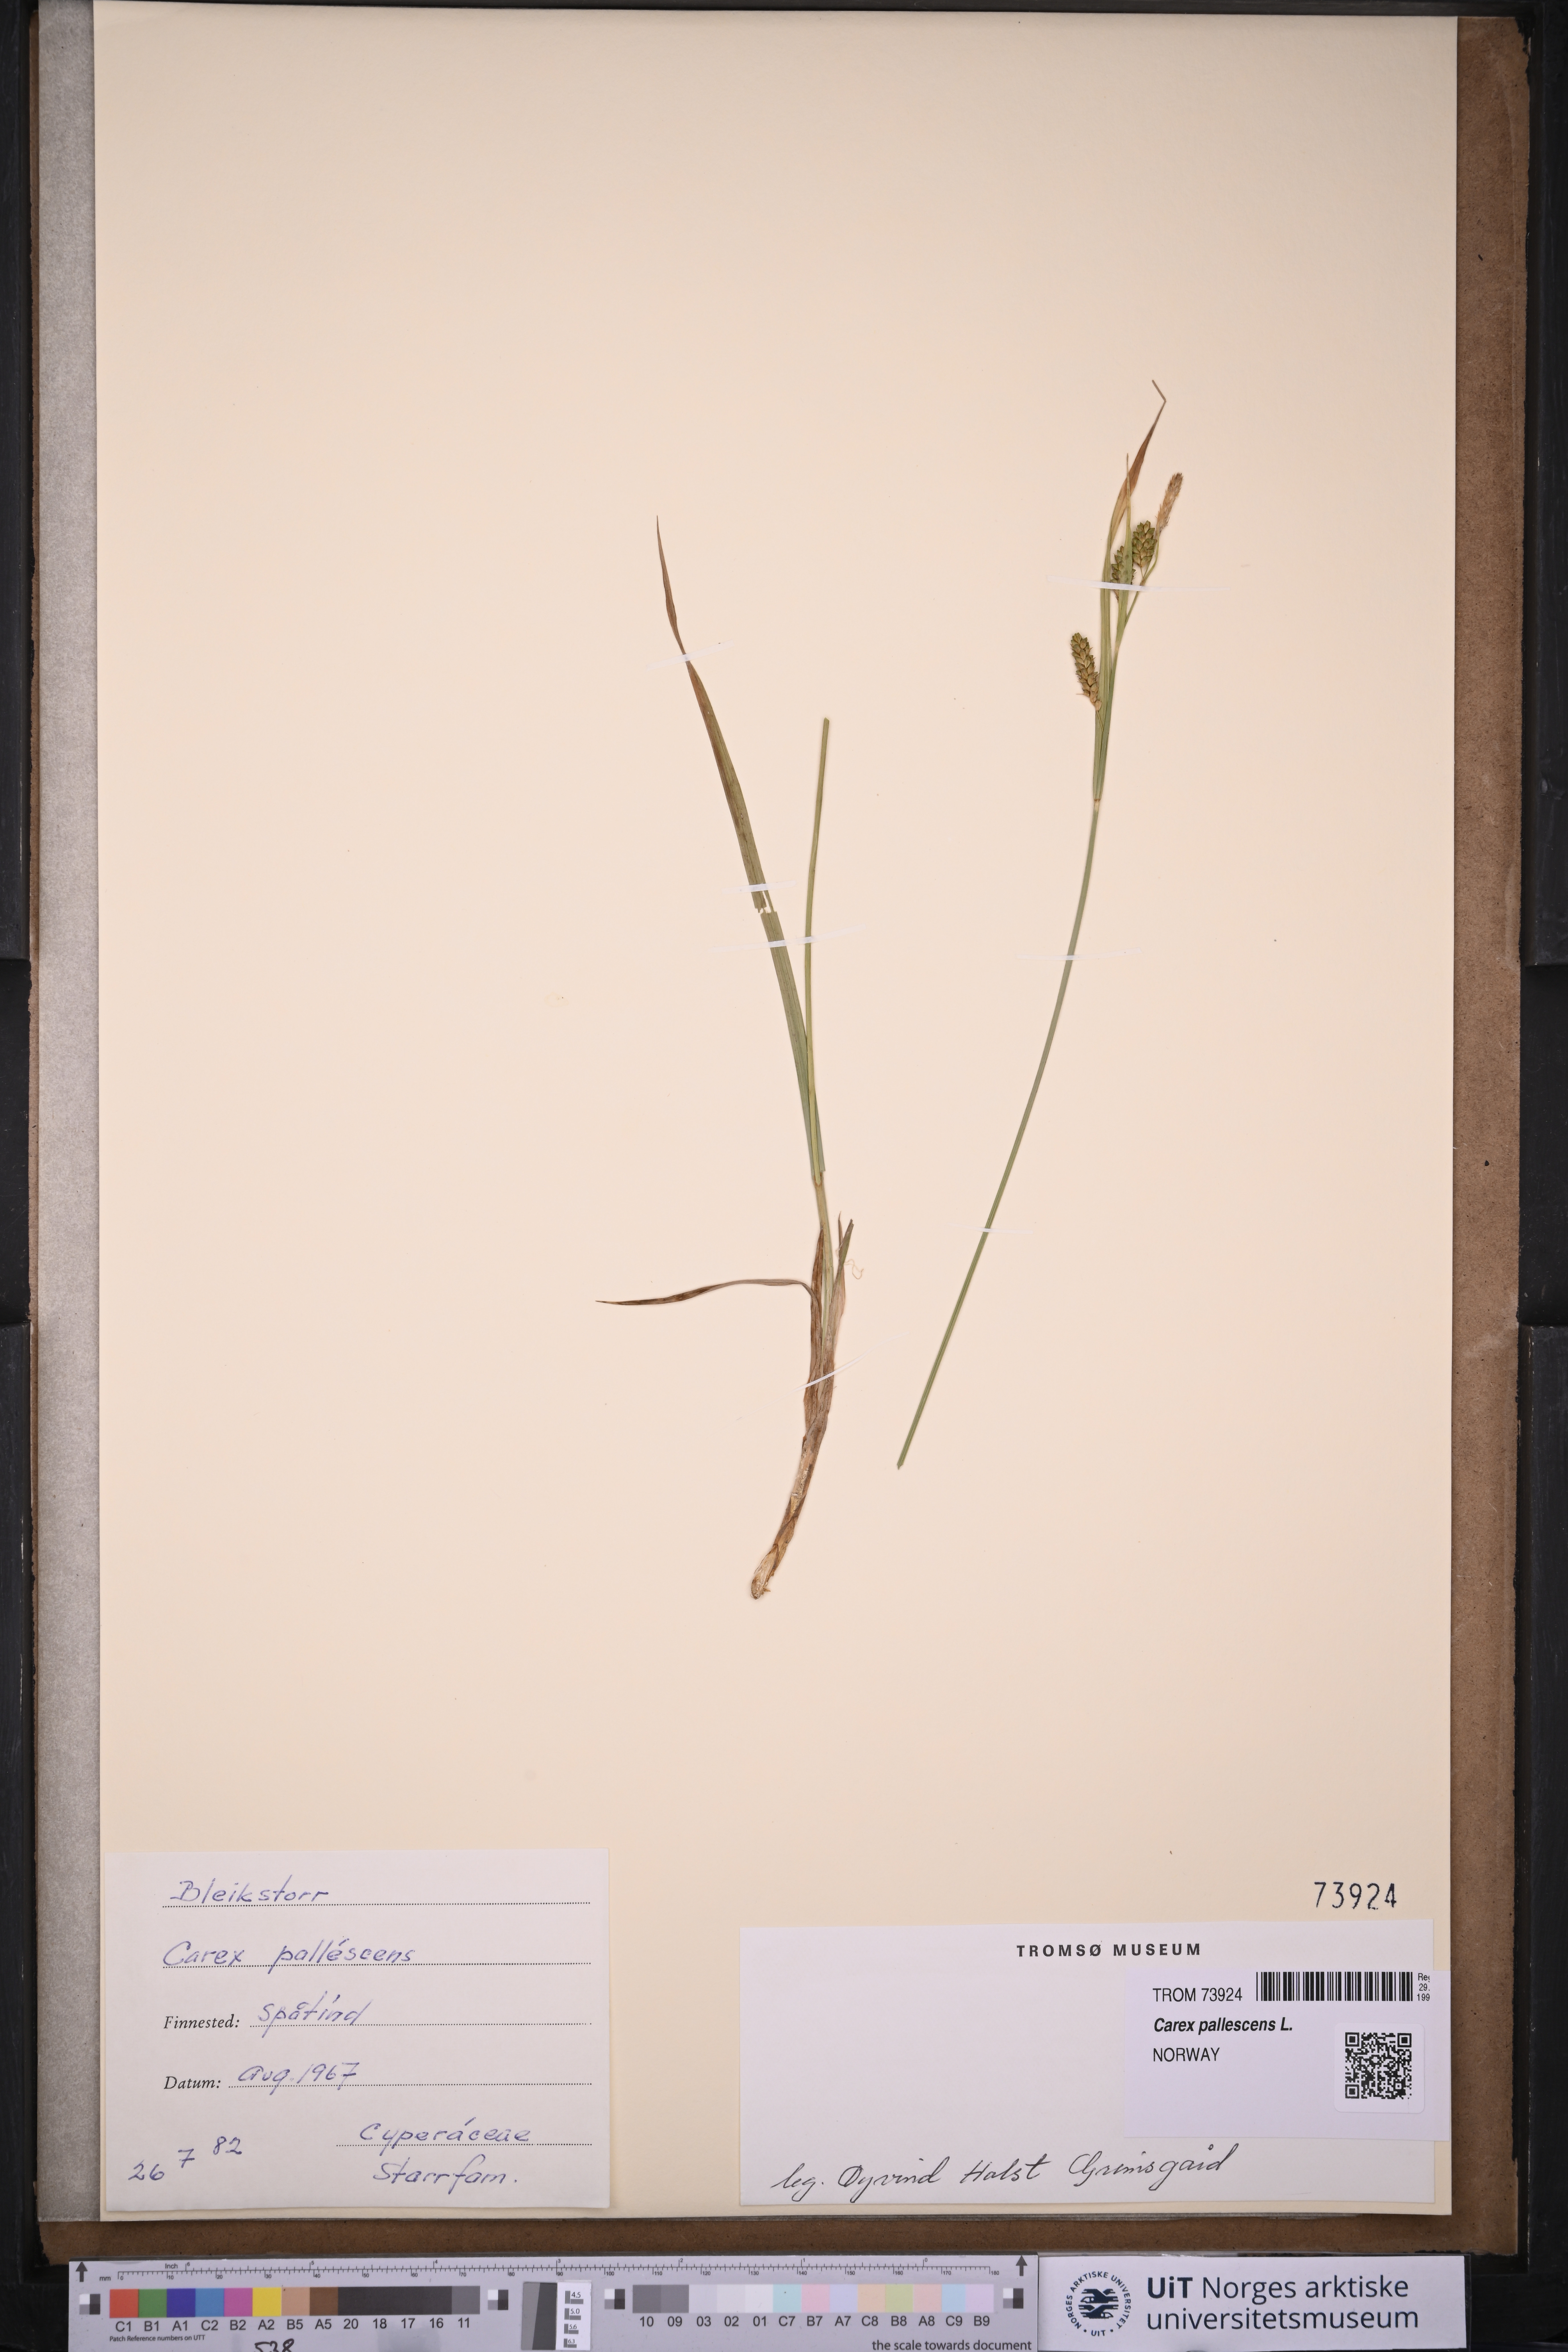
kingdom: Plantae
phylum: Tracheophyta
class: Liliopsida
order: Poales
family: Cyperaceae
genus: Carex
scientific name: Carex pallescens
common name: Pale sedge
